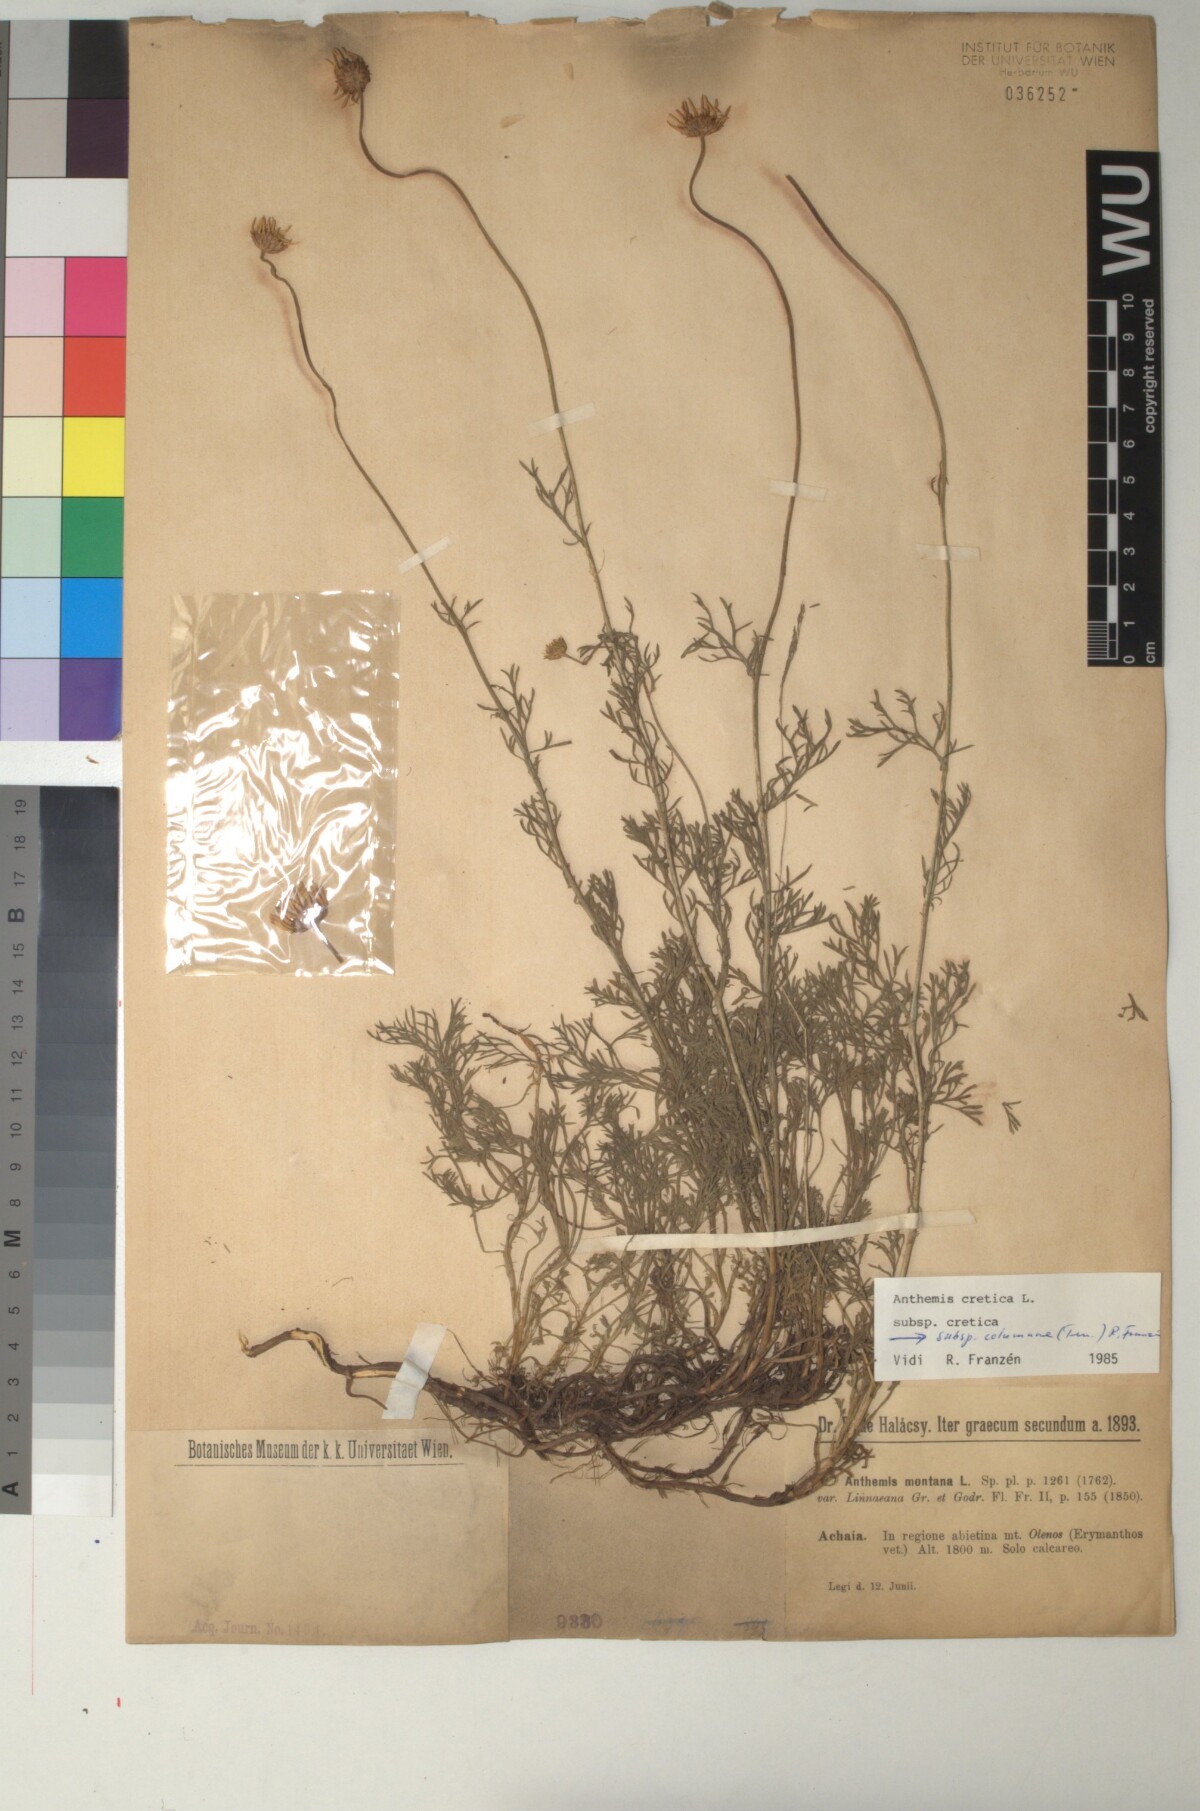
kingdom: Plantae
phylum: Tracheophyta
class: Magnoliopsida
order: Asterales
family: Asteraceae
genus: Anthemis
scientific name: Anthemis cretica
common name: Mountain dog-daisy
